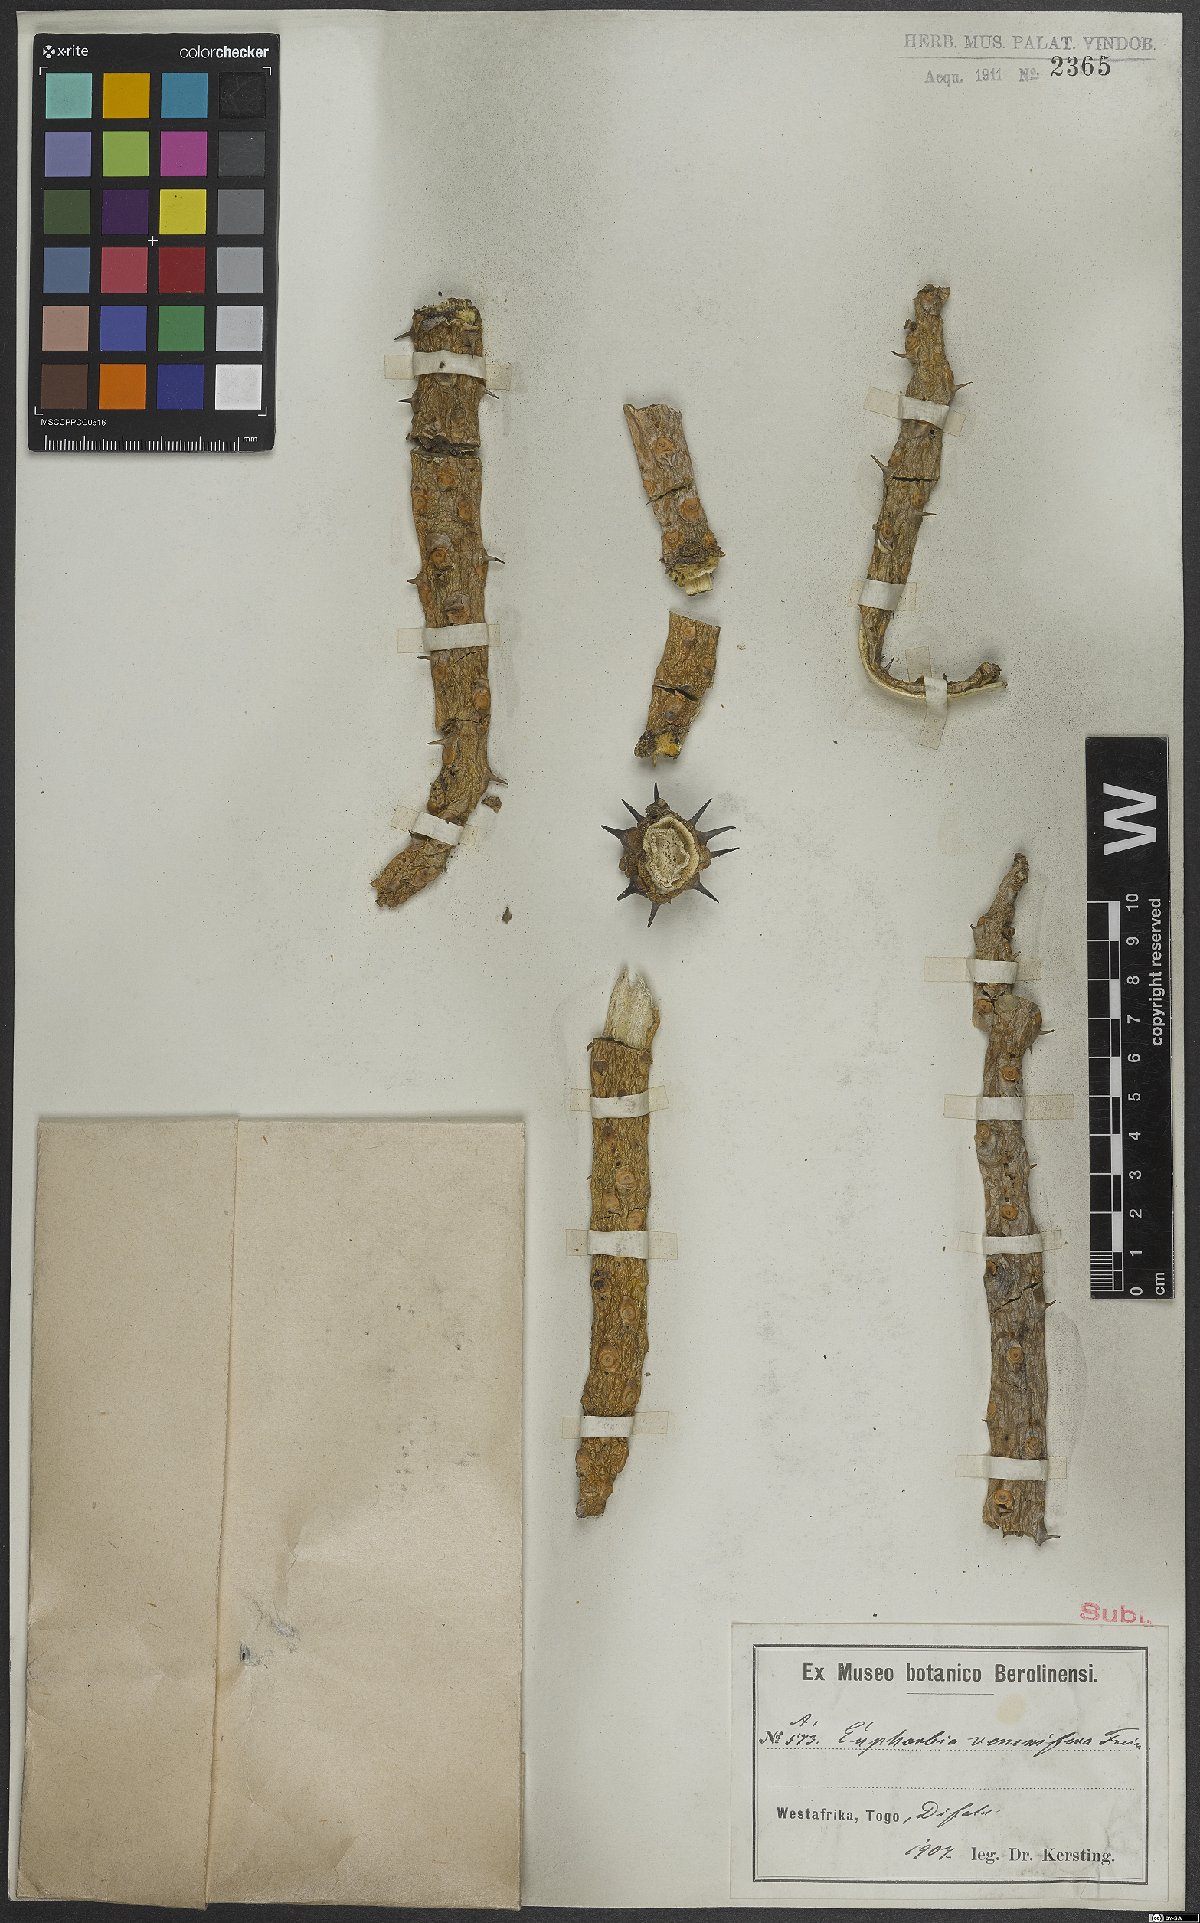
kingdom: Plantae
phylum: Tracheophyta
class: Magnoliopsida
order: Malpighiales
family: Euphorbiaceae
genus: Euphorbia
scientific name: Euphorbia
